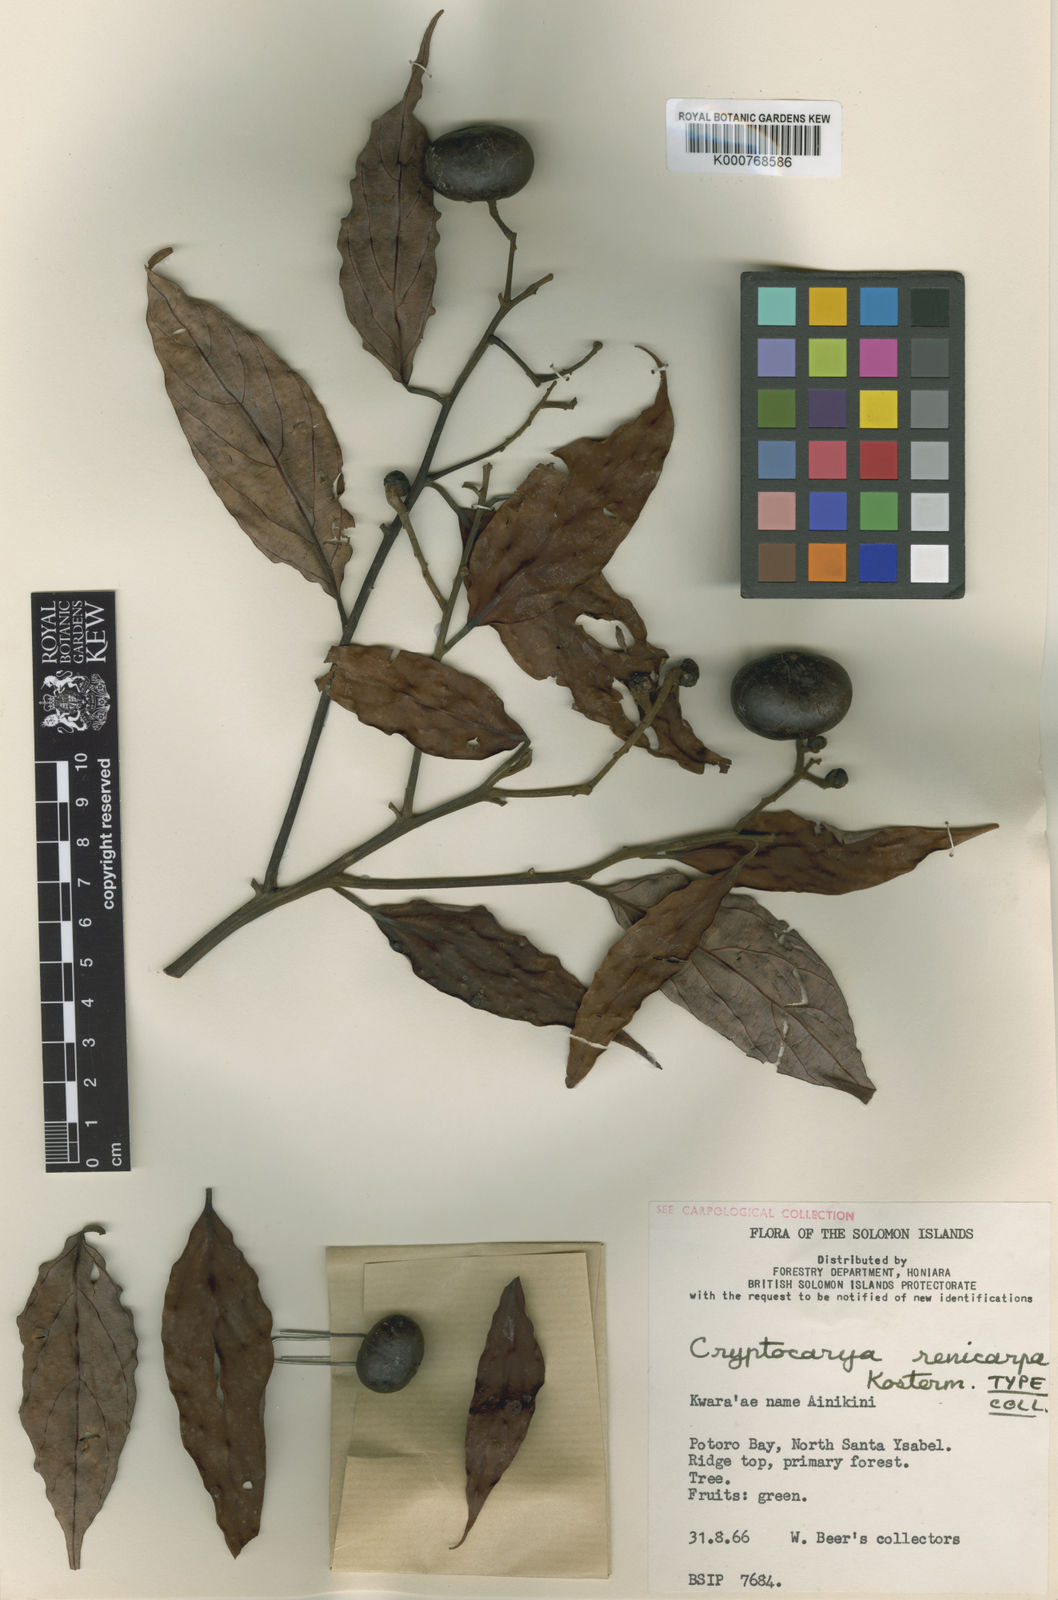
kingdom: Plantae
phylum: Tracheophyta
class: Magnoliopsida
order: Laurales
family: Lauraceae
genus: Cryptocarya
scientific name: Cryptocarya renicarpa
